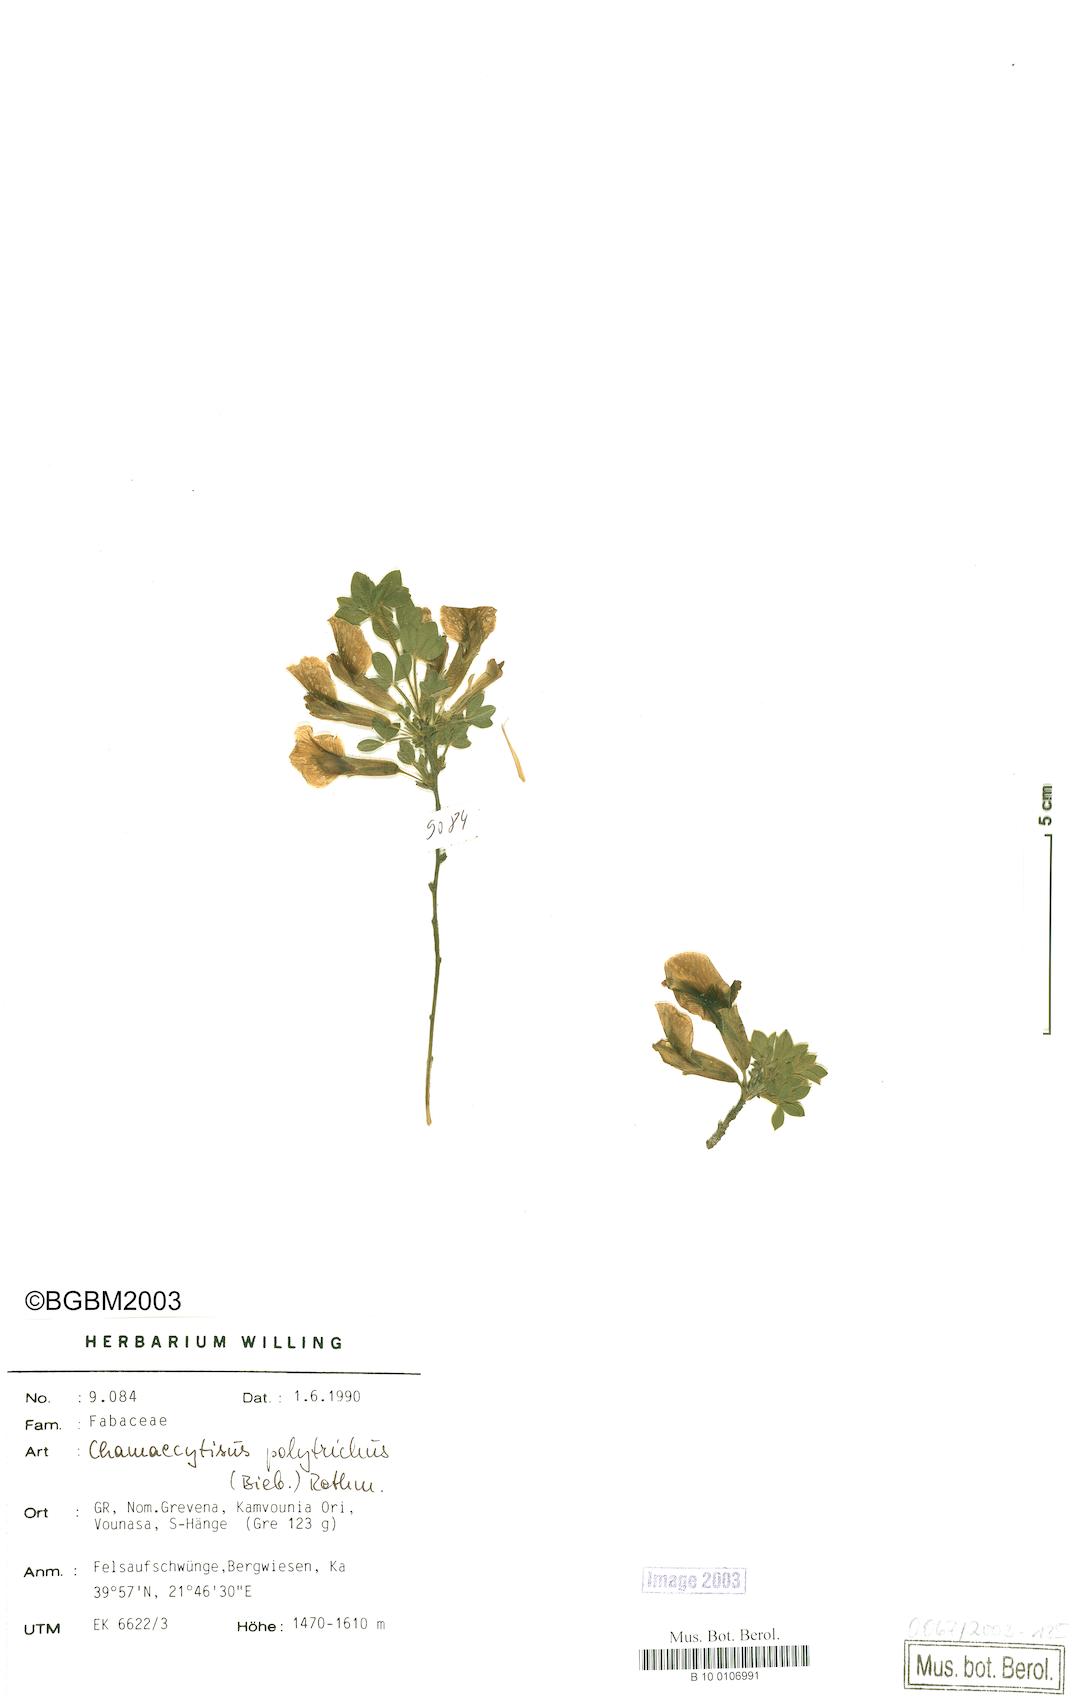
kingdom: Plantae
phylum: Tracheophyta
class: Magnoliopsida
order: Fabales
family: Fabaceae
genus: Chamaecytisus
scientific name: Chamaecytisus hirsutus
